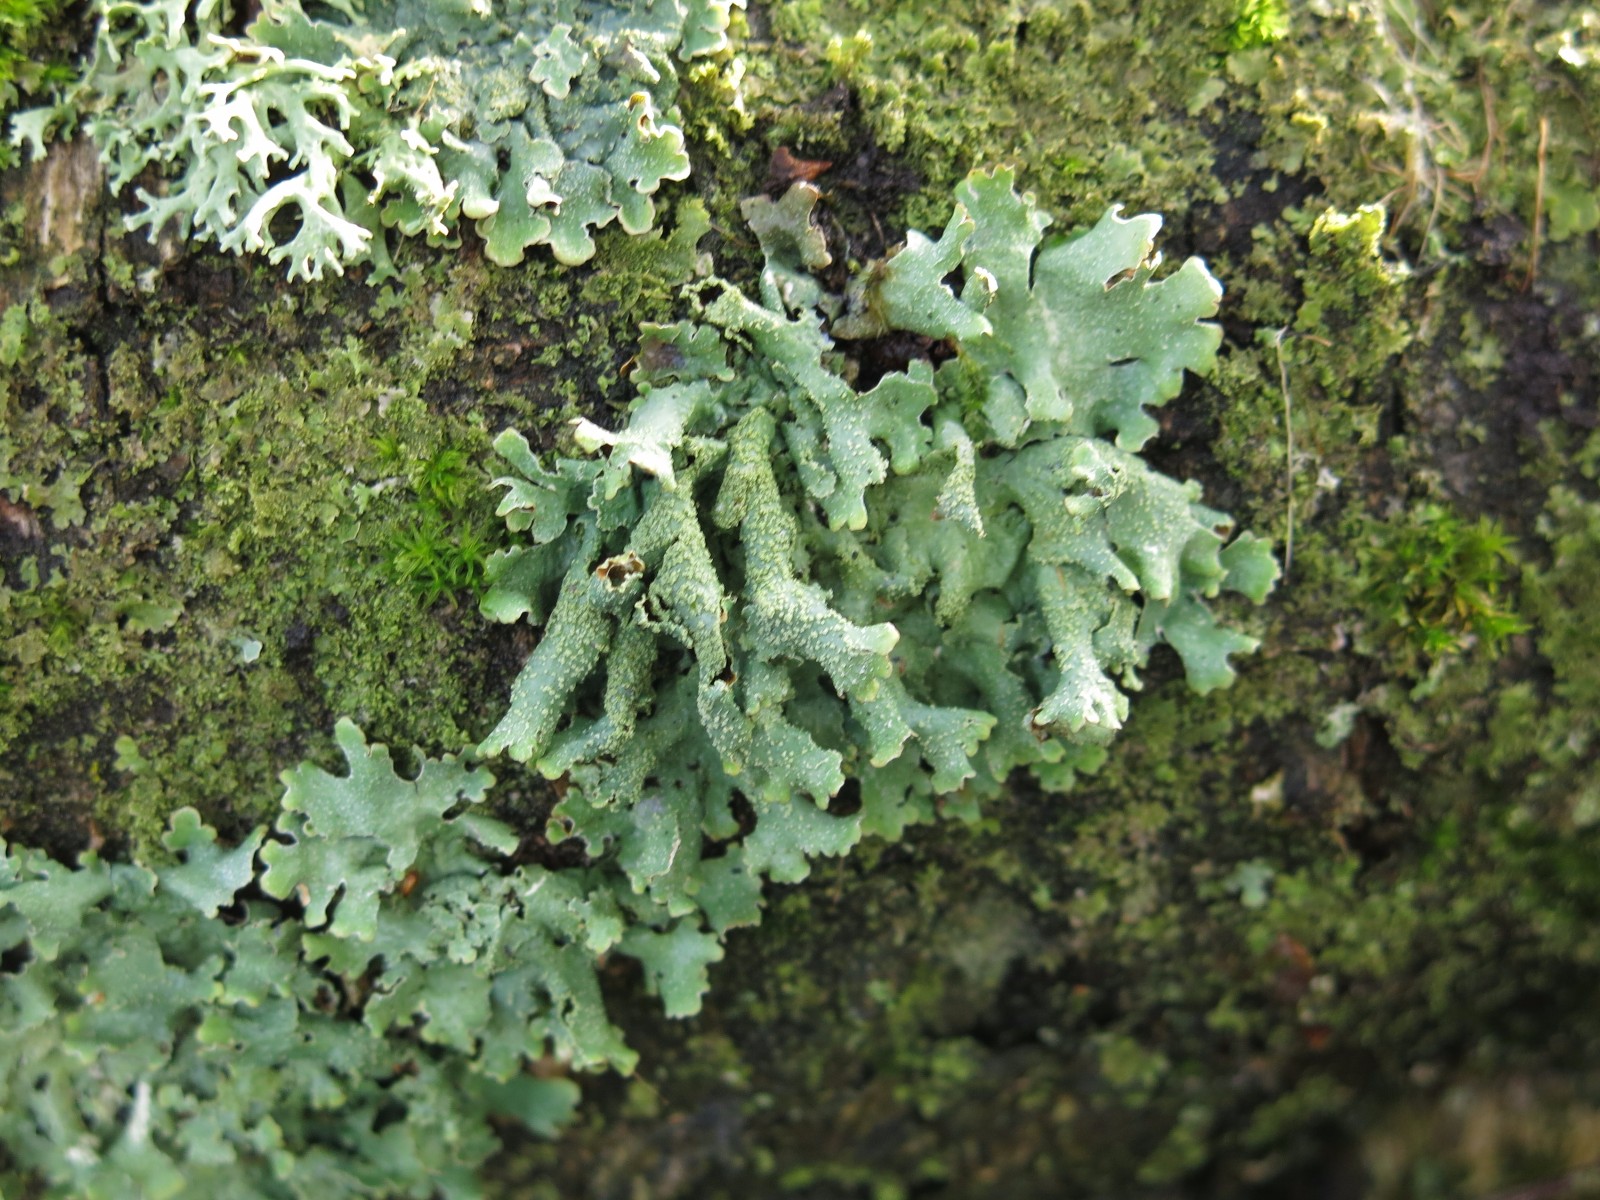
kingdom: Fungi
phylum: Ascomycota
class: Lecanoromycetes
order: Lecanorales
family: Parmeliaceae
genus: Parmelia
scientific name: Parmelia submontana
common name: langlobet skållav
